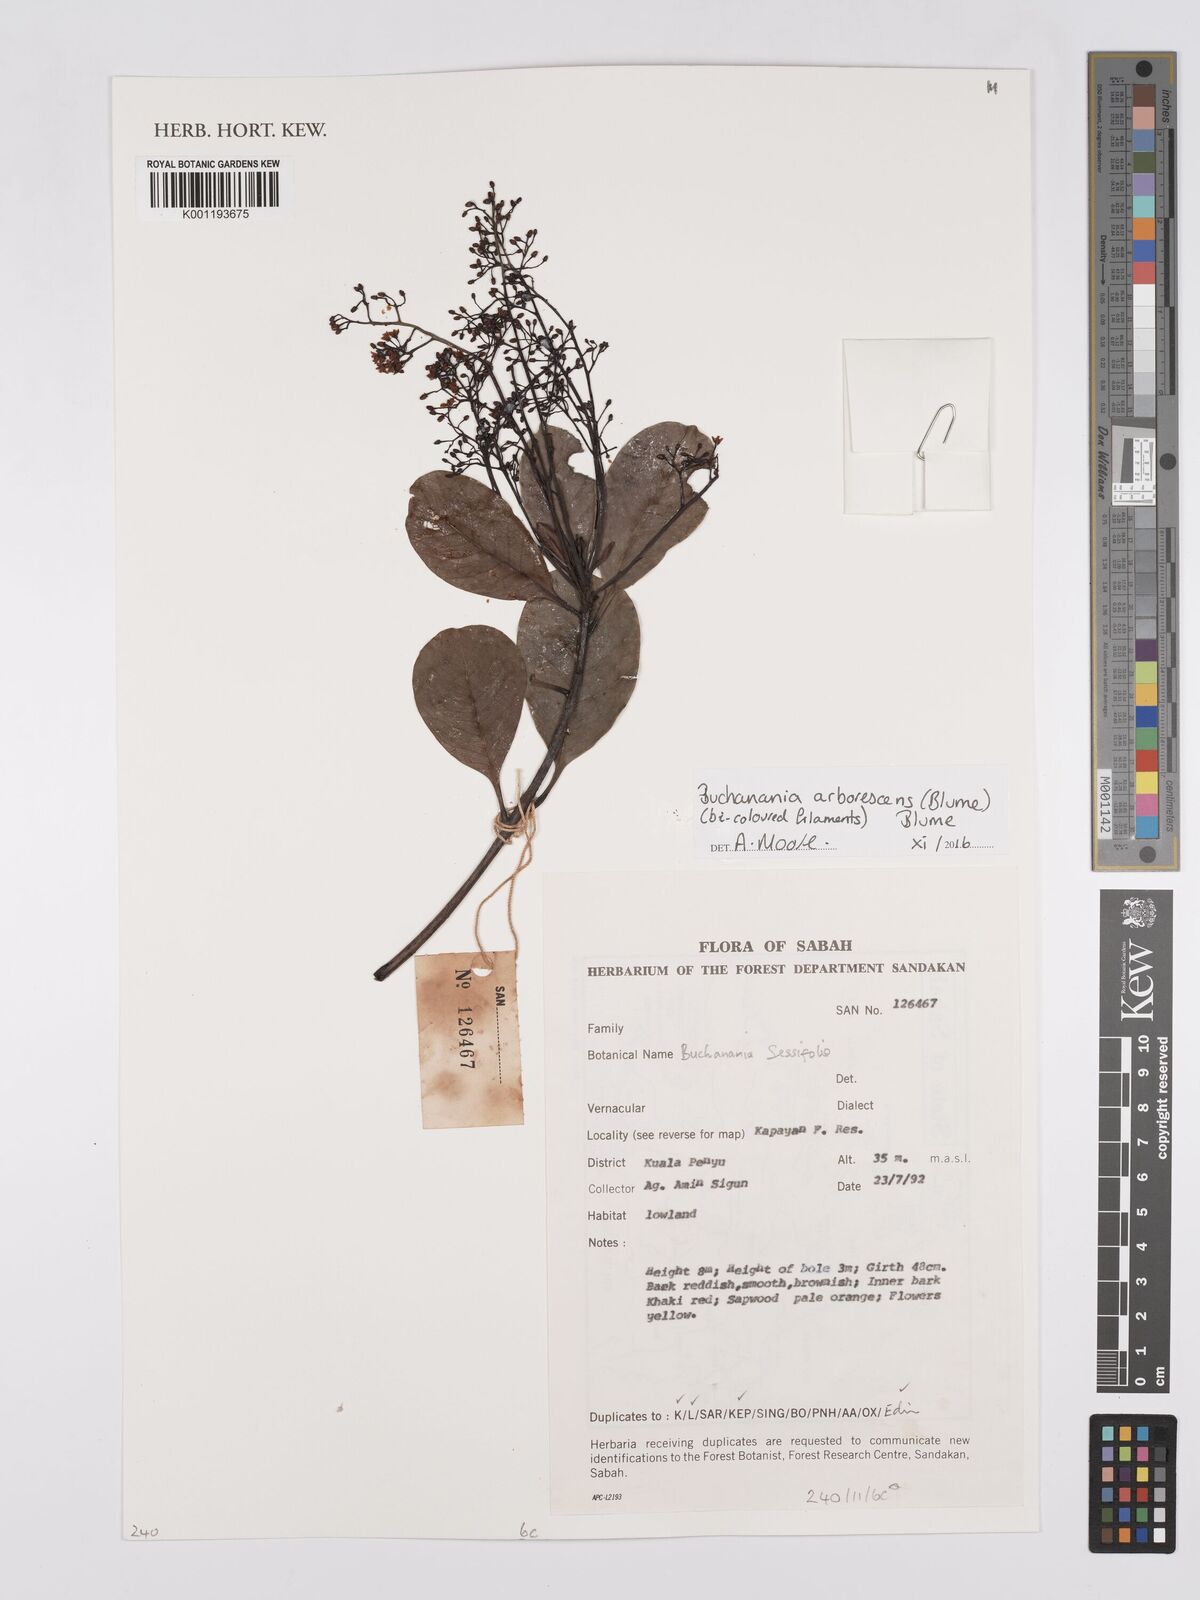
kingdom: Plantae
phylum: Tracheophyta
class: Magnoliopsida
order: Sapindales
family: Anacardiaceae
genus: Buchanania
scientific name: Buchanania arborescens
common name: Sparrow’s mango
